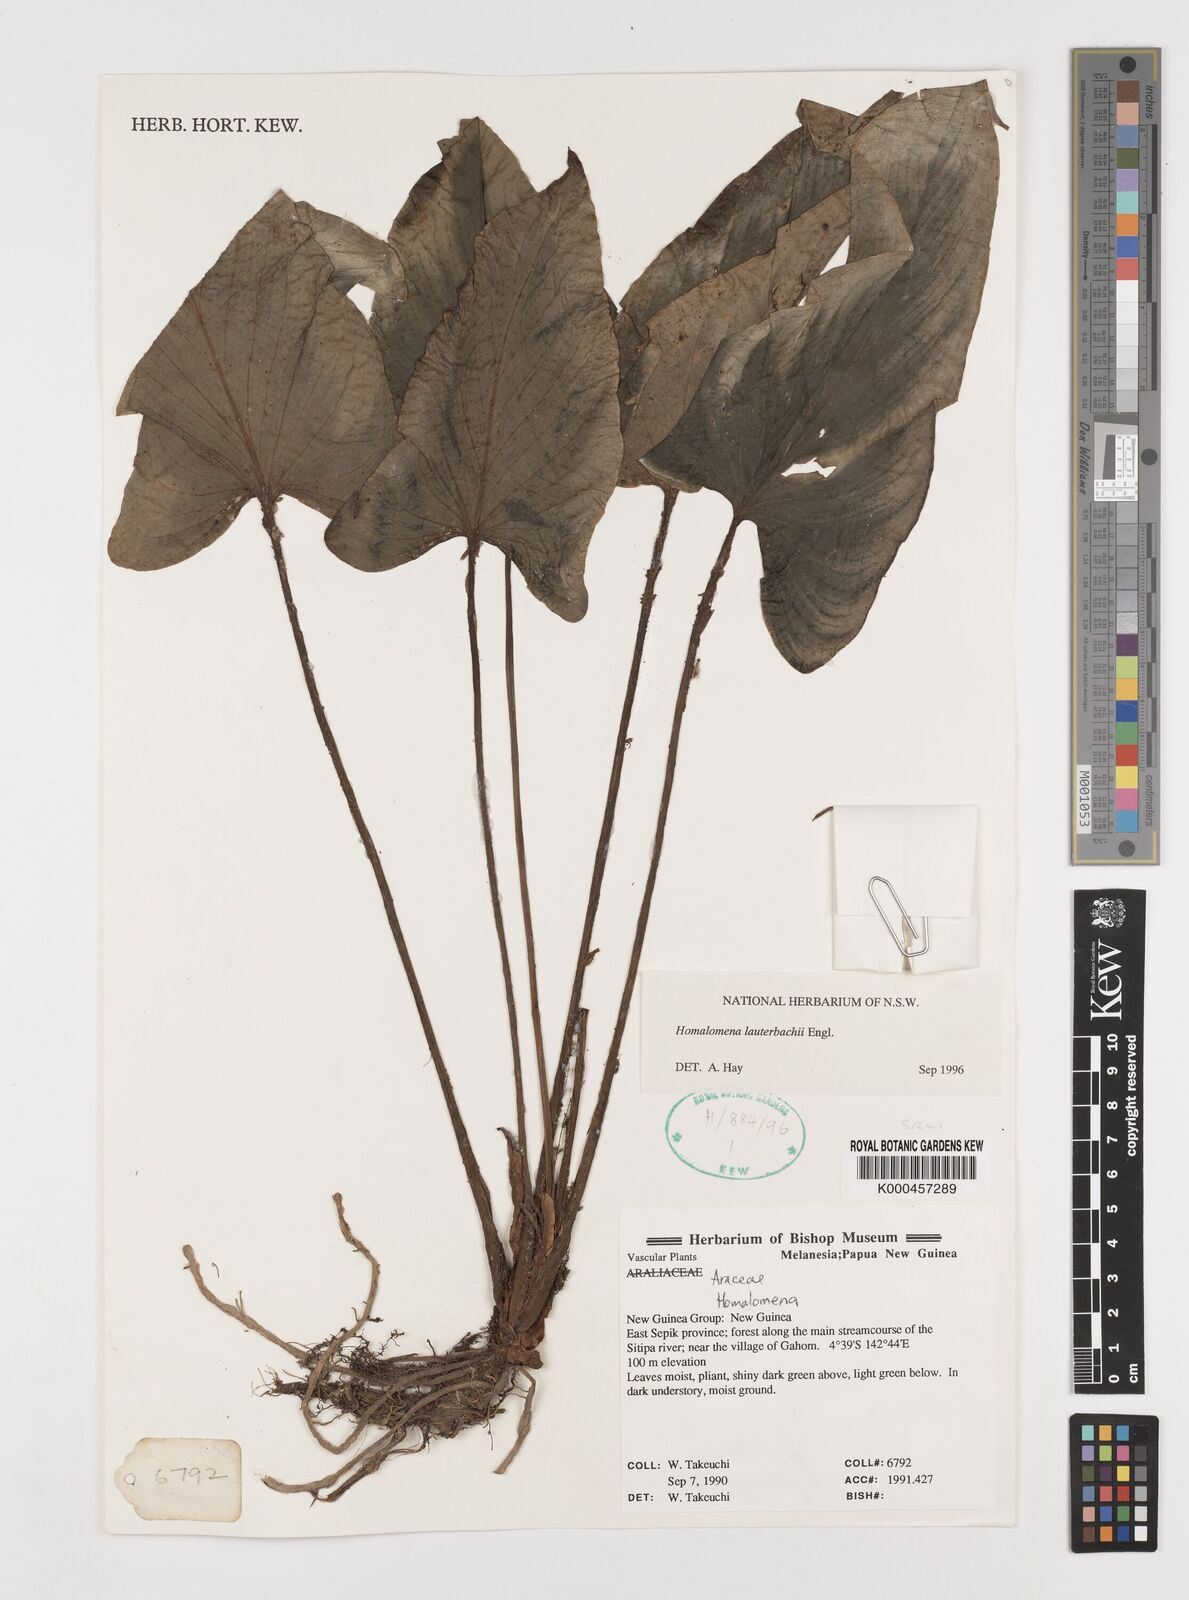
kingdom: Plantae
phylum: Tracheophyta
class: Liliopsida
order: Alismatales
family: Araceae
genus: Homalomena
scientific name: Homalomena lauterbachii
